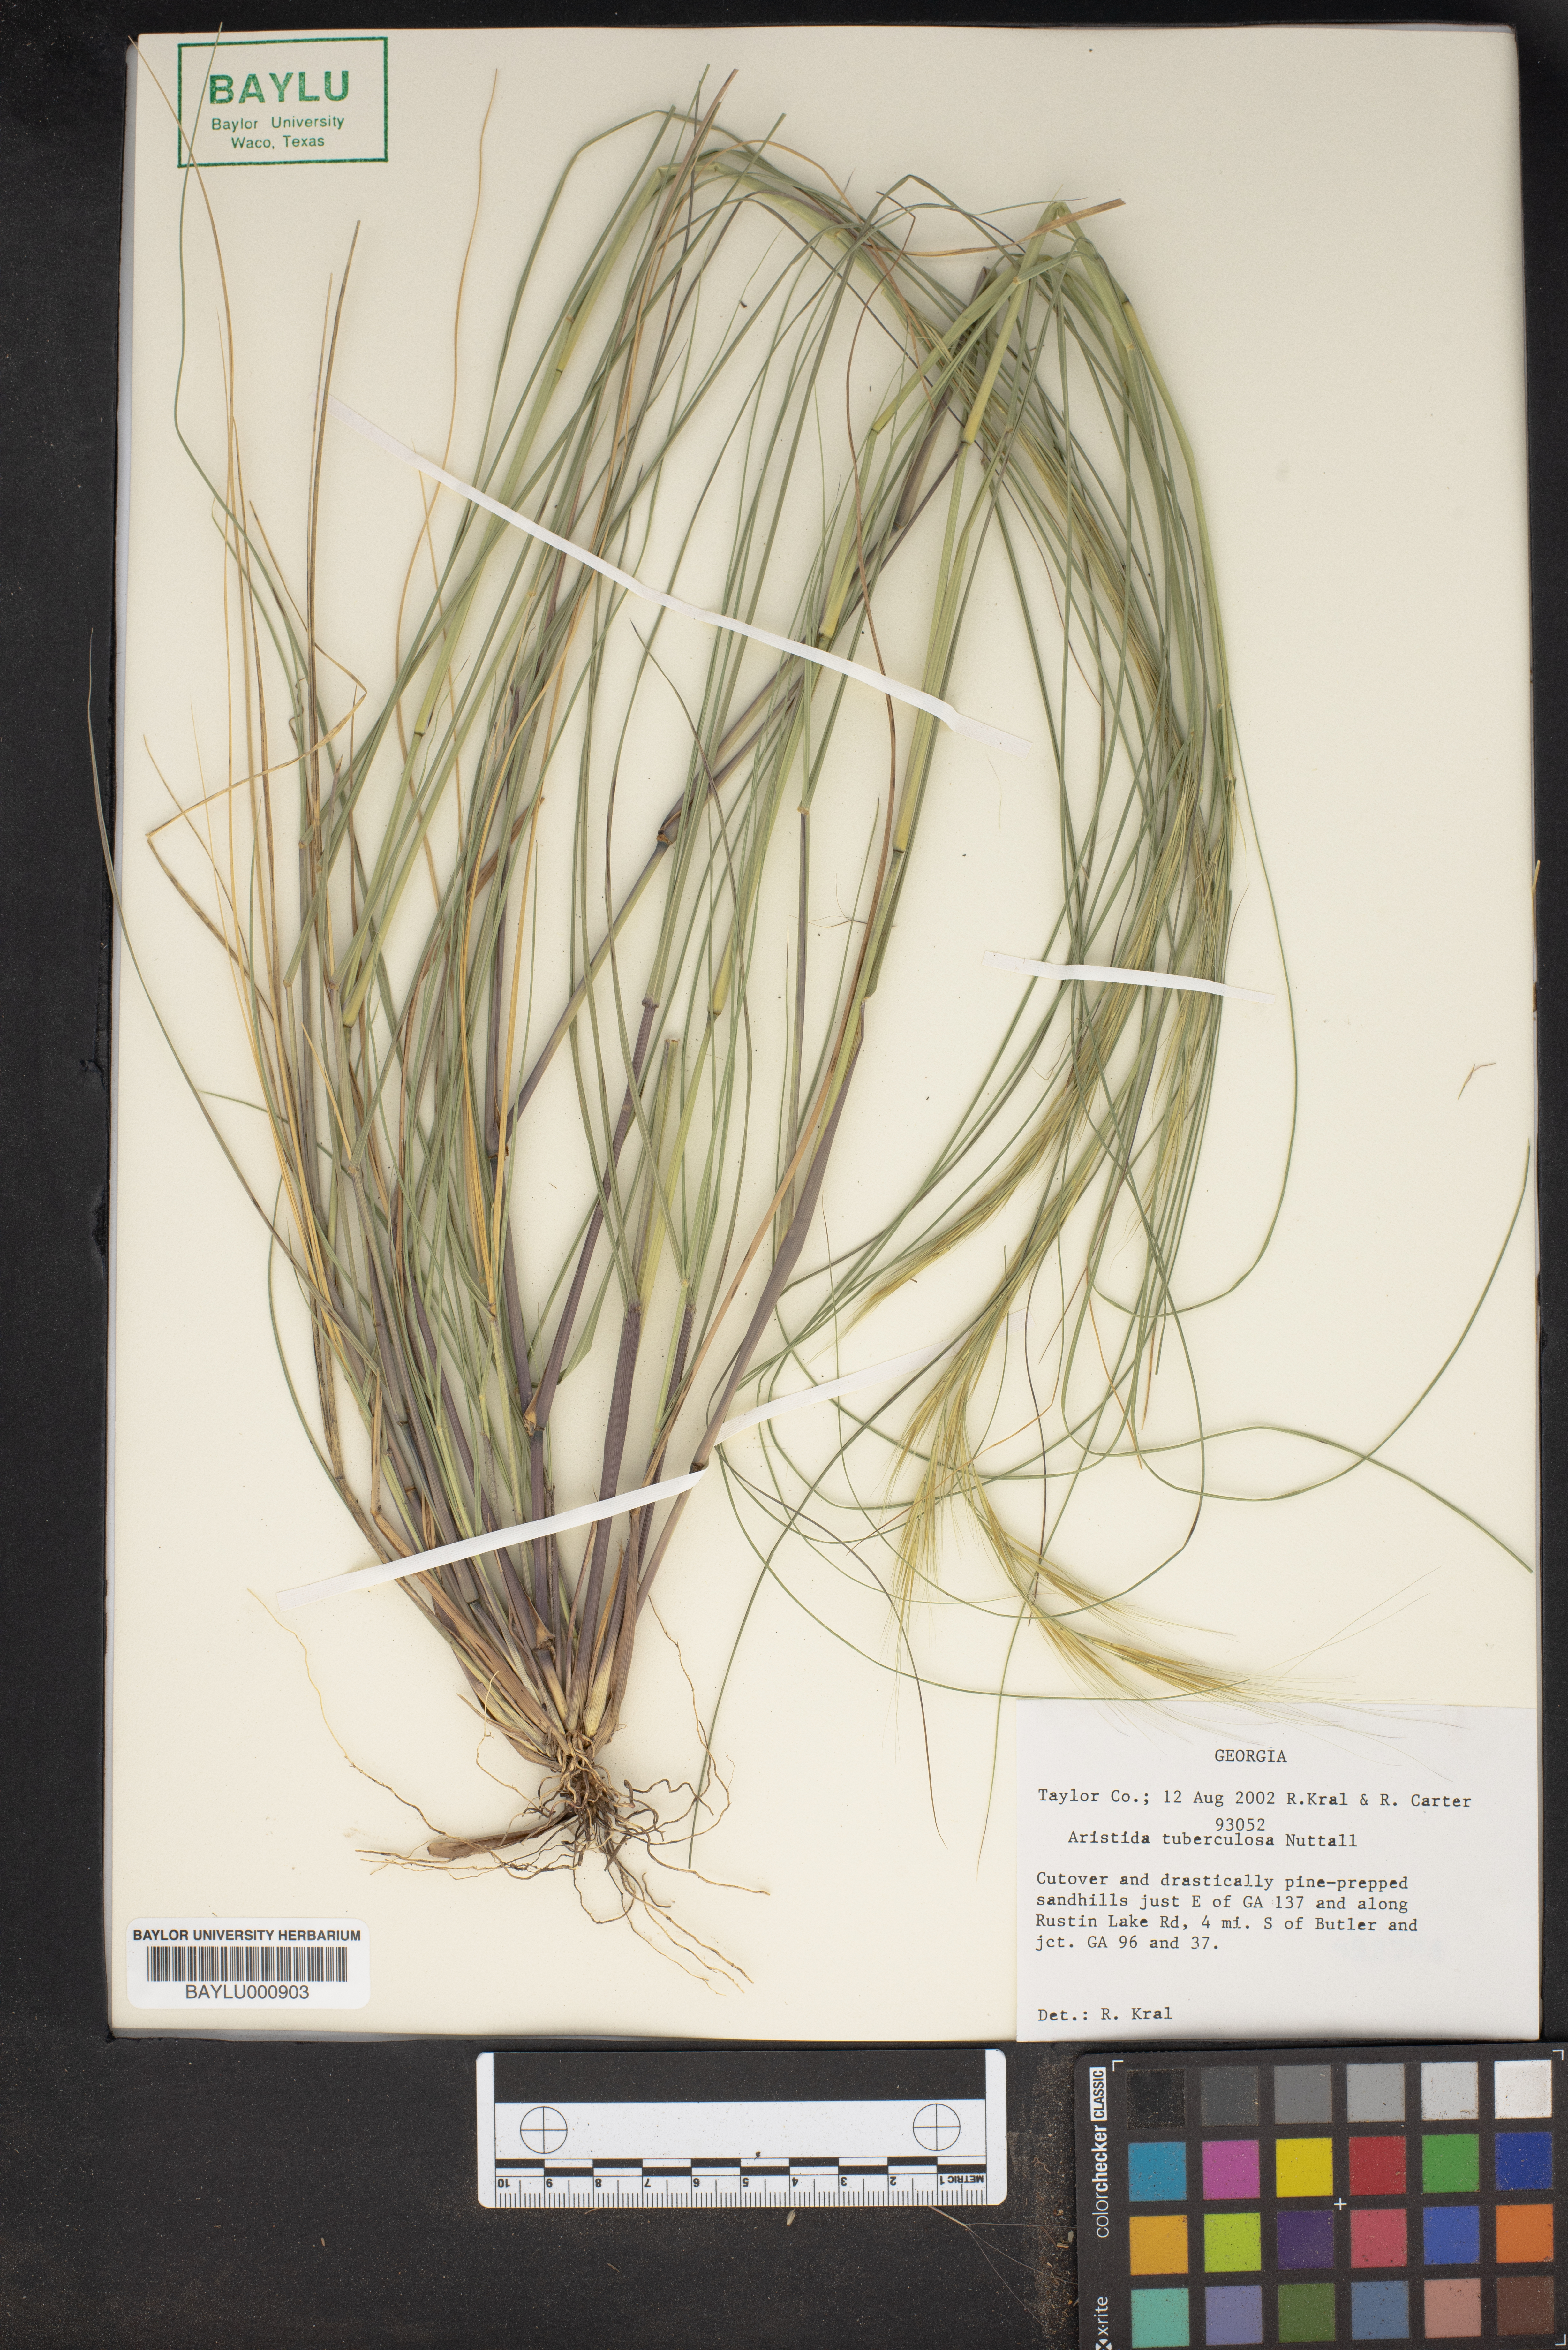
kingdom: Plantae
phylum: Tracheophyta
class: Liliopsida
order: Poales
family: Poaceae
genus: Aristida
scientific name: Aristida tuberculosa
